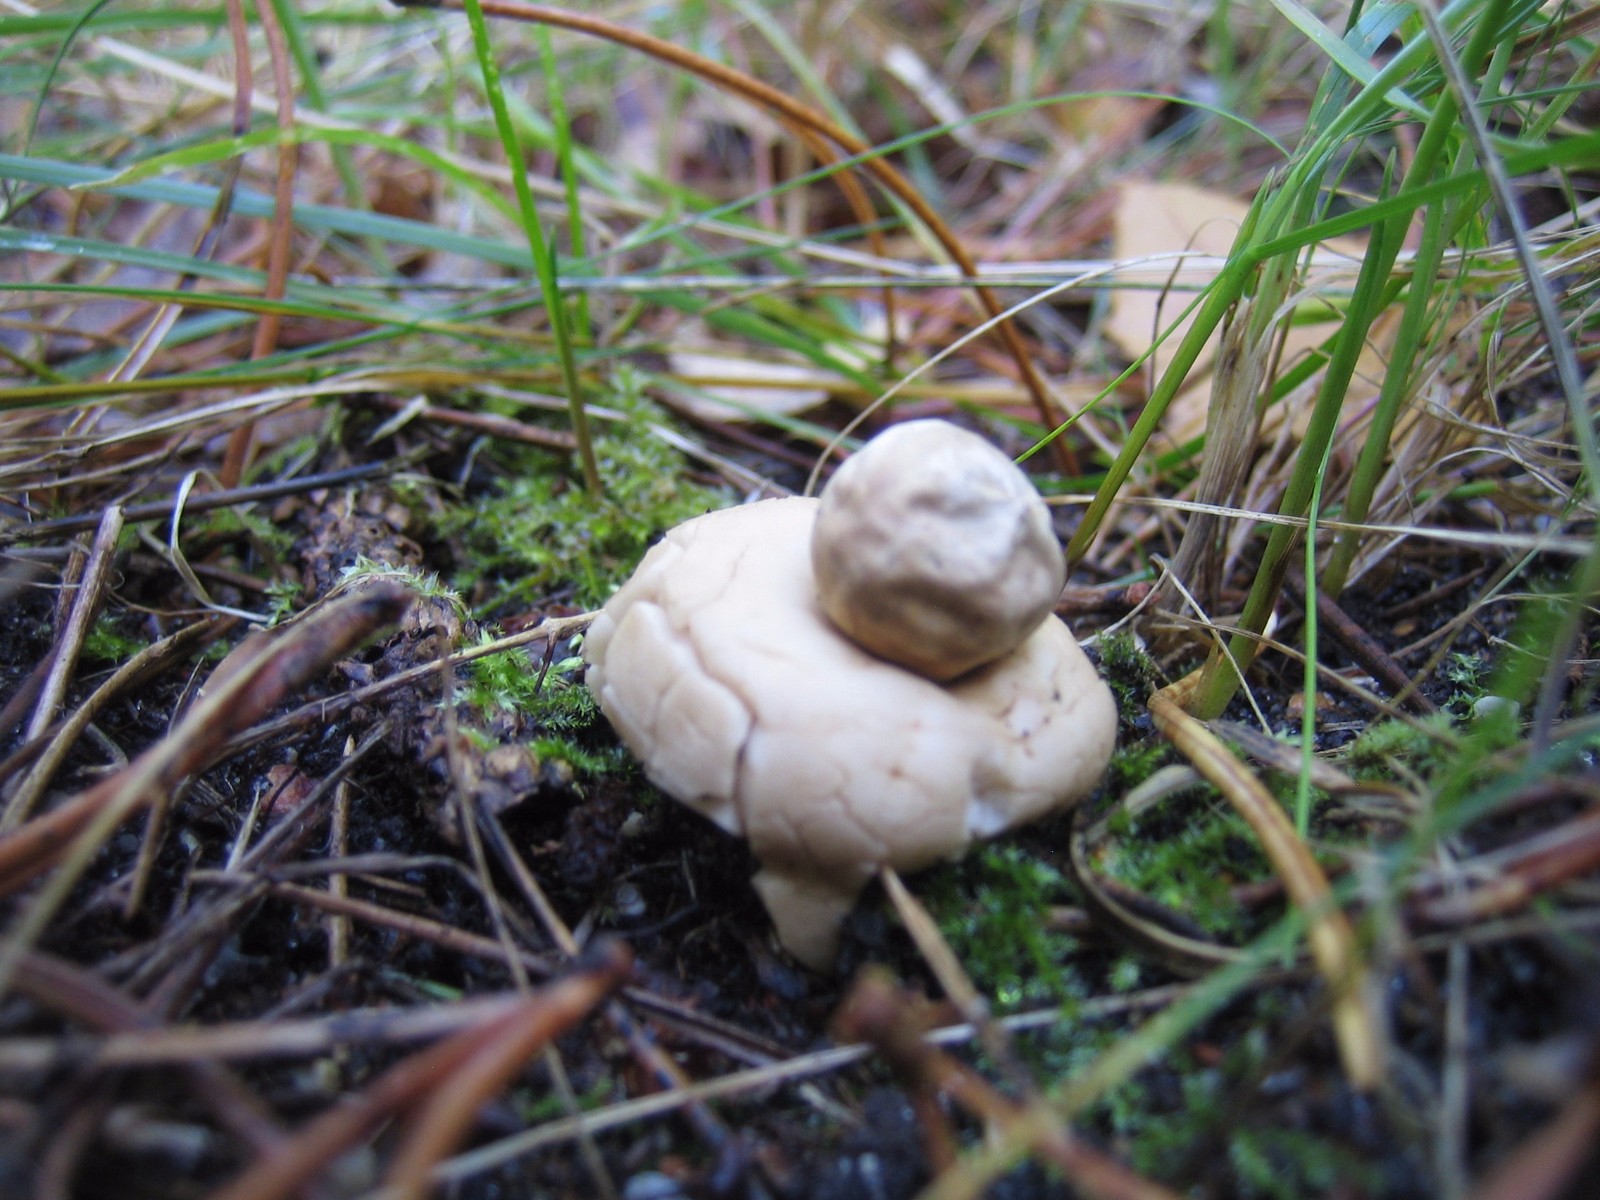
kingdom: Fungi
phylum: Basidiomycota
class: Agaricomycetes
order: Geastrales
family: Geastraceae
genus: Geastrum
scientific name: Geastrum fimbriatum
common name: frynset stjernebold
